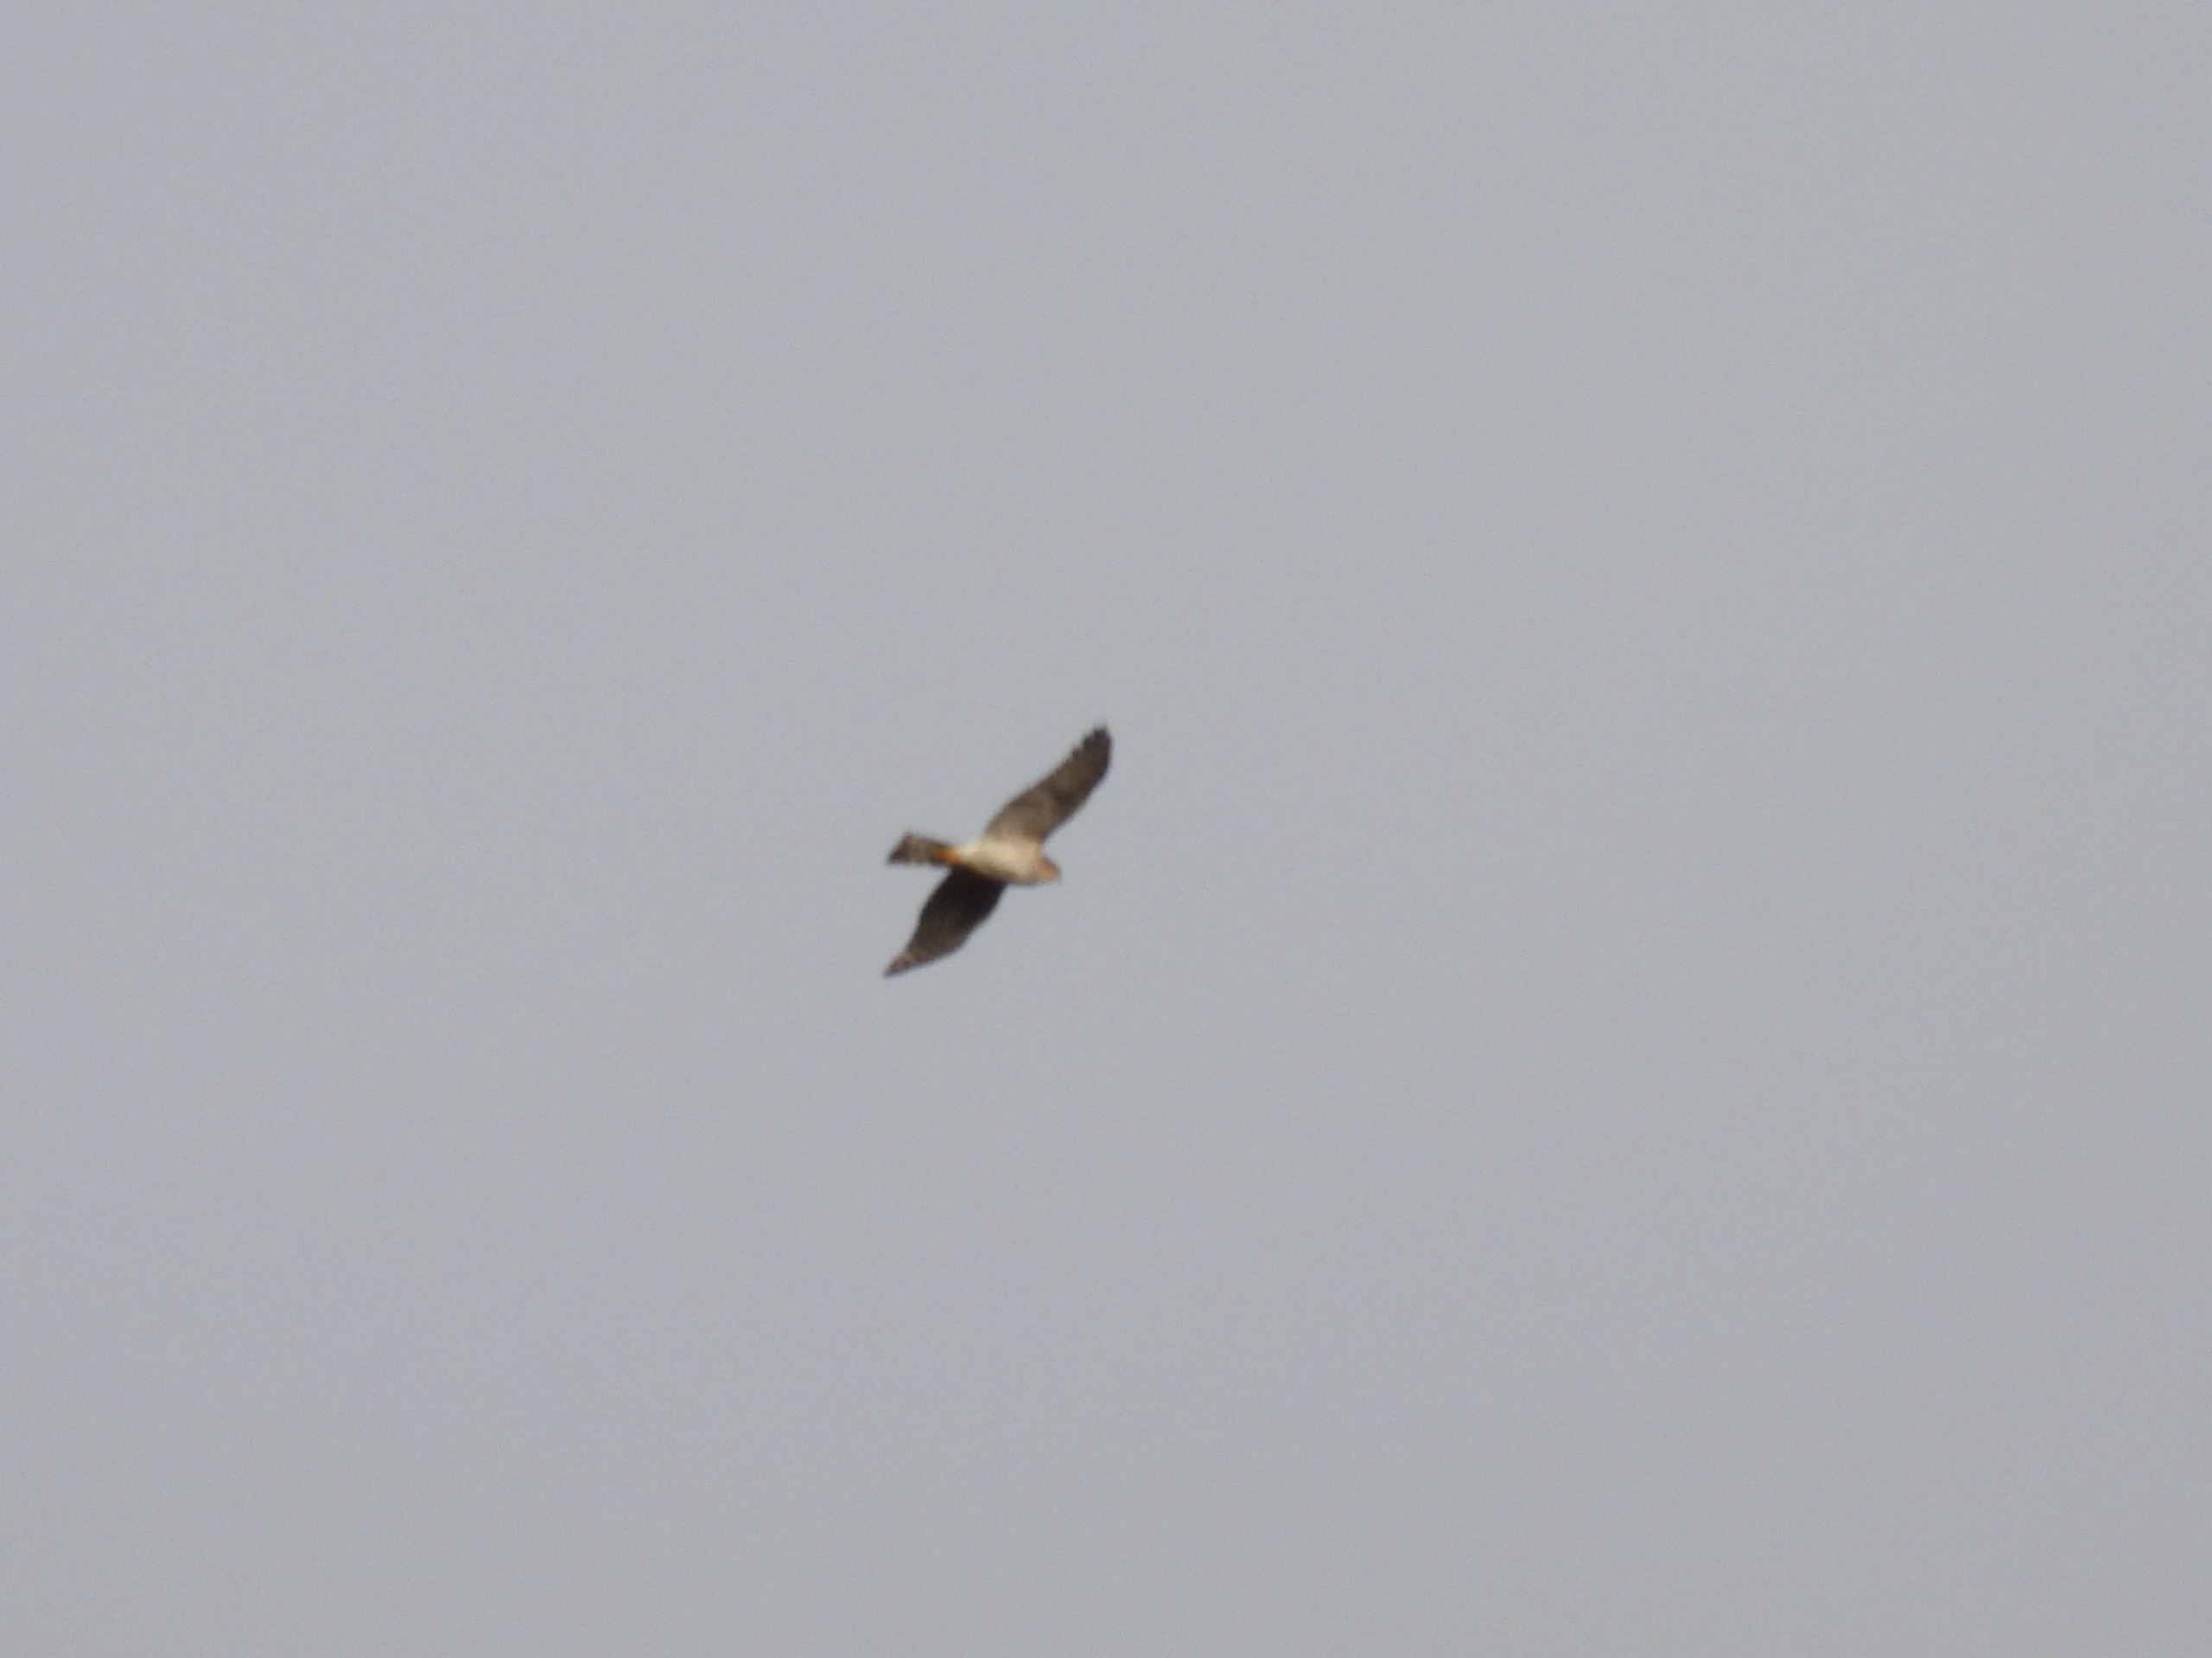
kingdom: Animalia
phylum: Chordata
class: Aves
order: Accipitriformes
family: Accipitridae
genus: Accipiter
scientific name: Accipiter gentilis
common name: Duehøg
